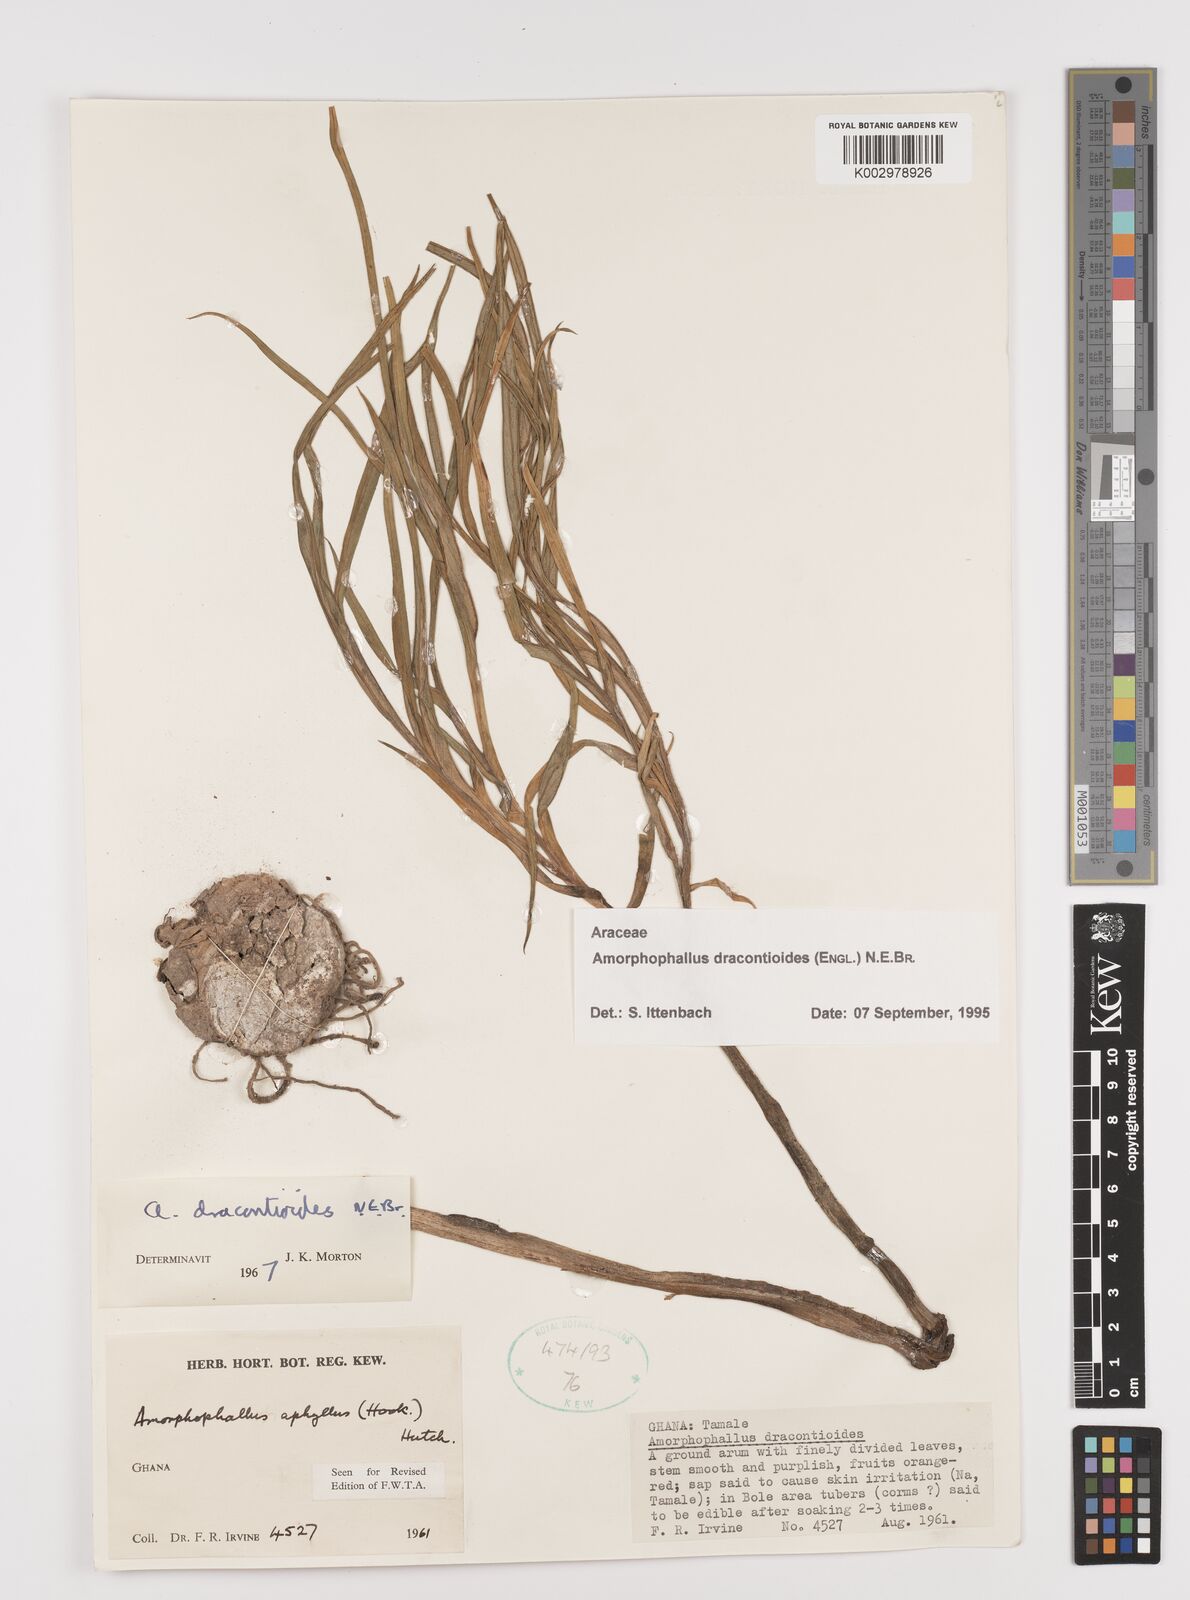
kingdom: Plantae
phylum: Tracheophyta
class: Liliopsida
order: Alismatales
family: Araceae
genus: Amorphophallus
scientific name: Amorphophallus dracontioides
